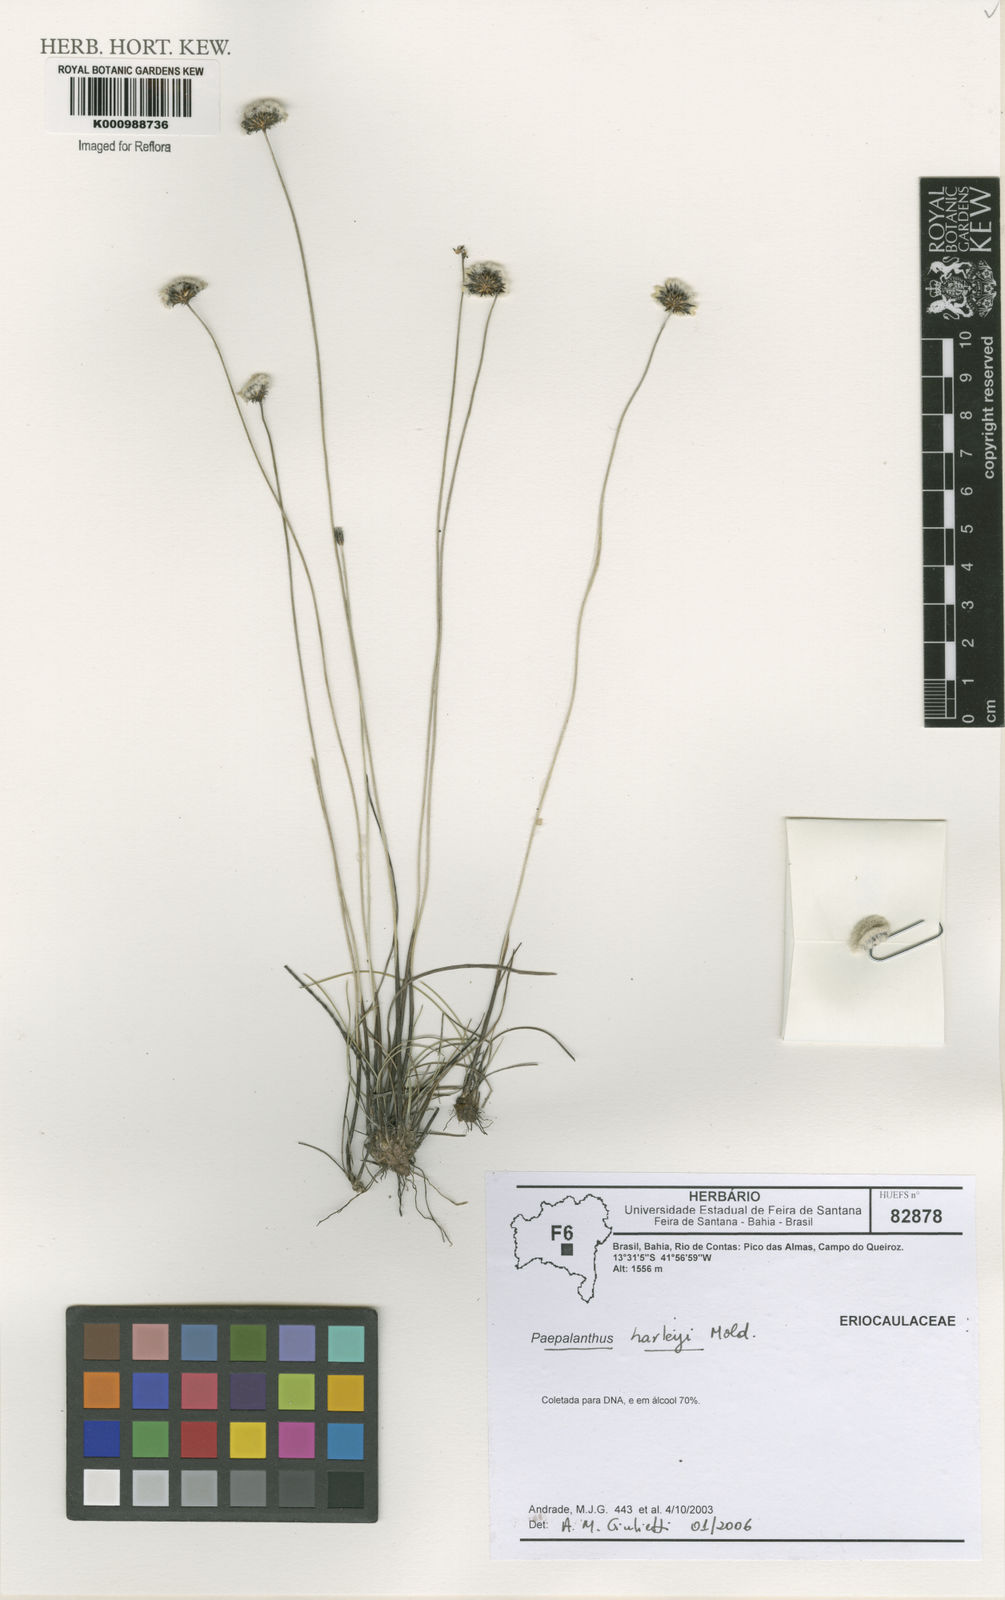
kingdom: Plantae
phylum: Tracheophyta
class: Liliopsida
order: Poales
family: Eriocaulaceae
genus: Paepalanthus
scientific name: Paepalanthus harleyi
